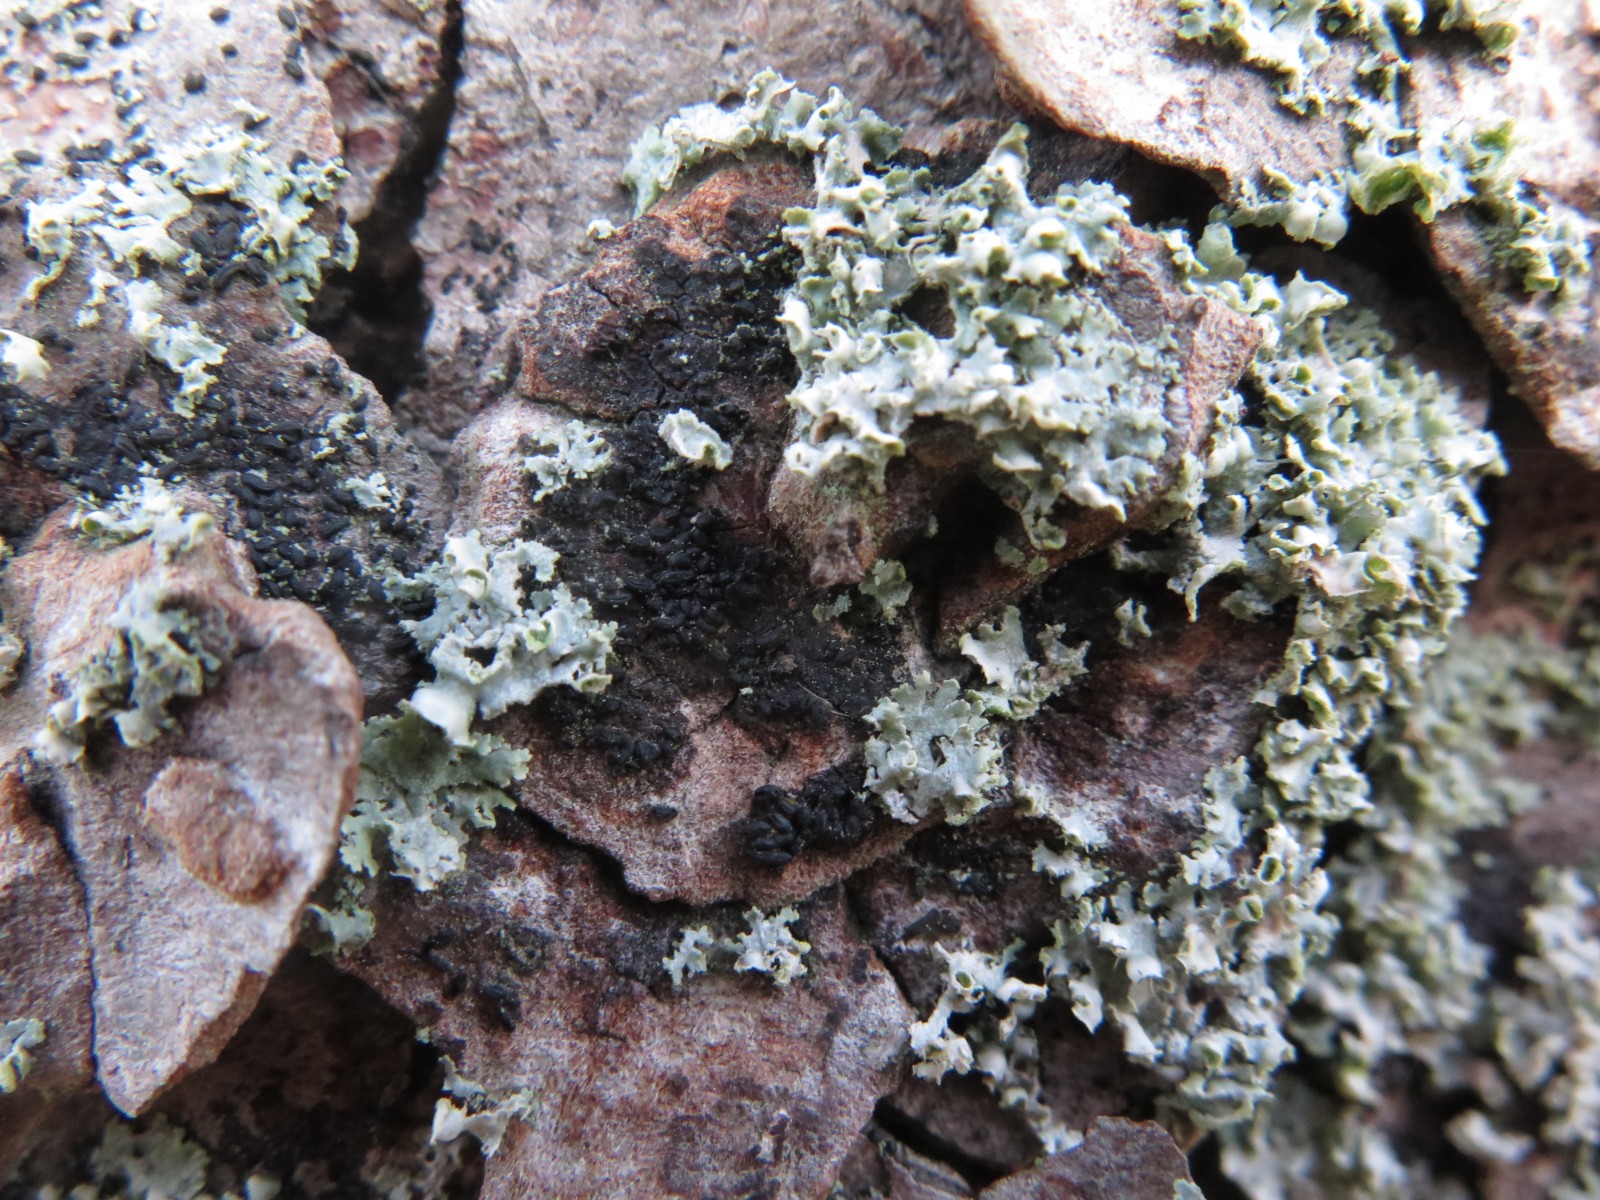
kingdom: Fungi
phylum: Ascomycota
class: Dothideomycetes
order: Hysteriales
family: Hysteriaceae
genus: Hysterium
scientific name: Hysterium acuminatum
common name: almindelig kulmund
